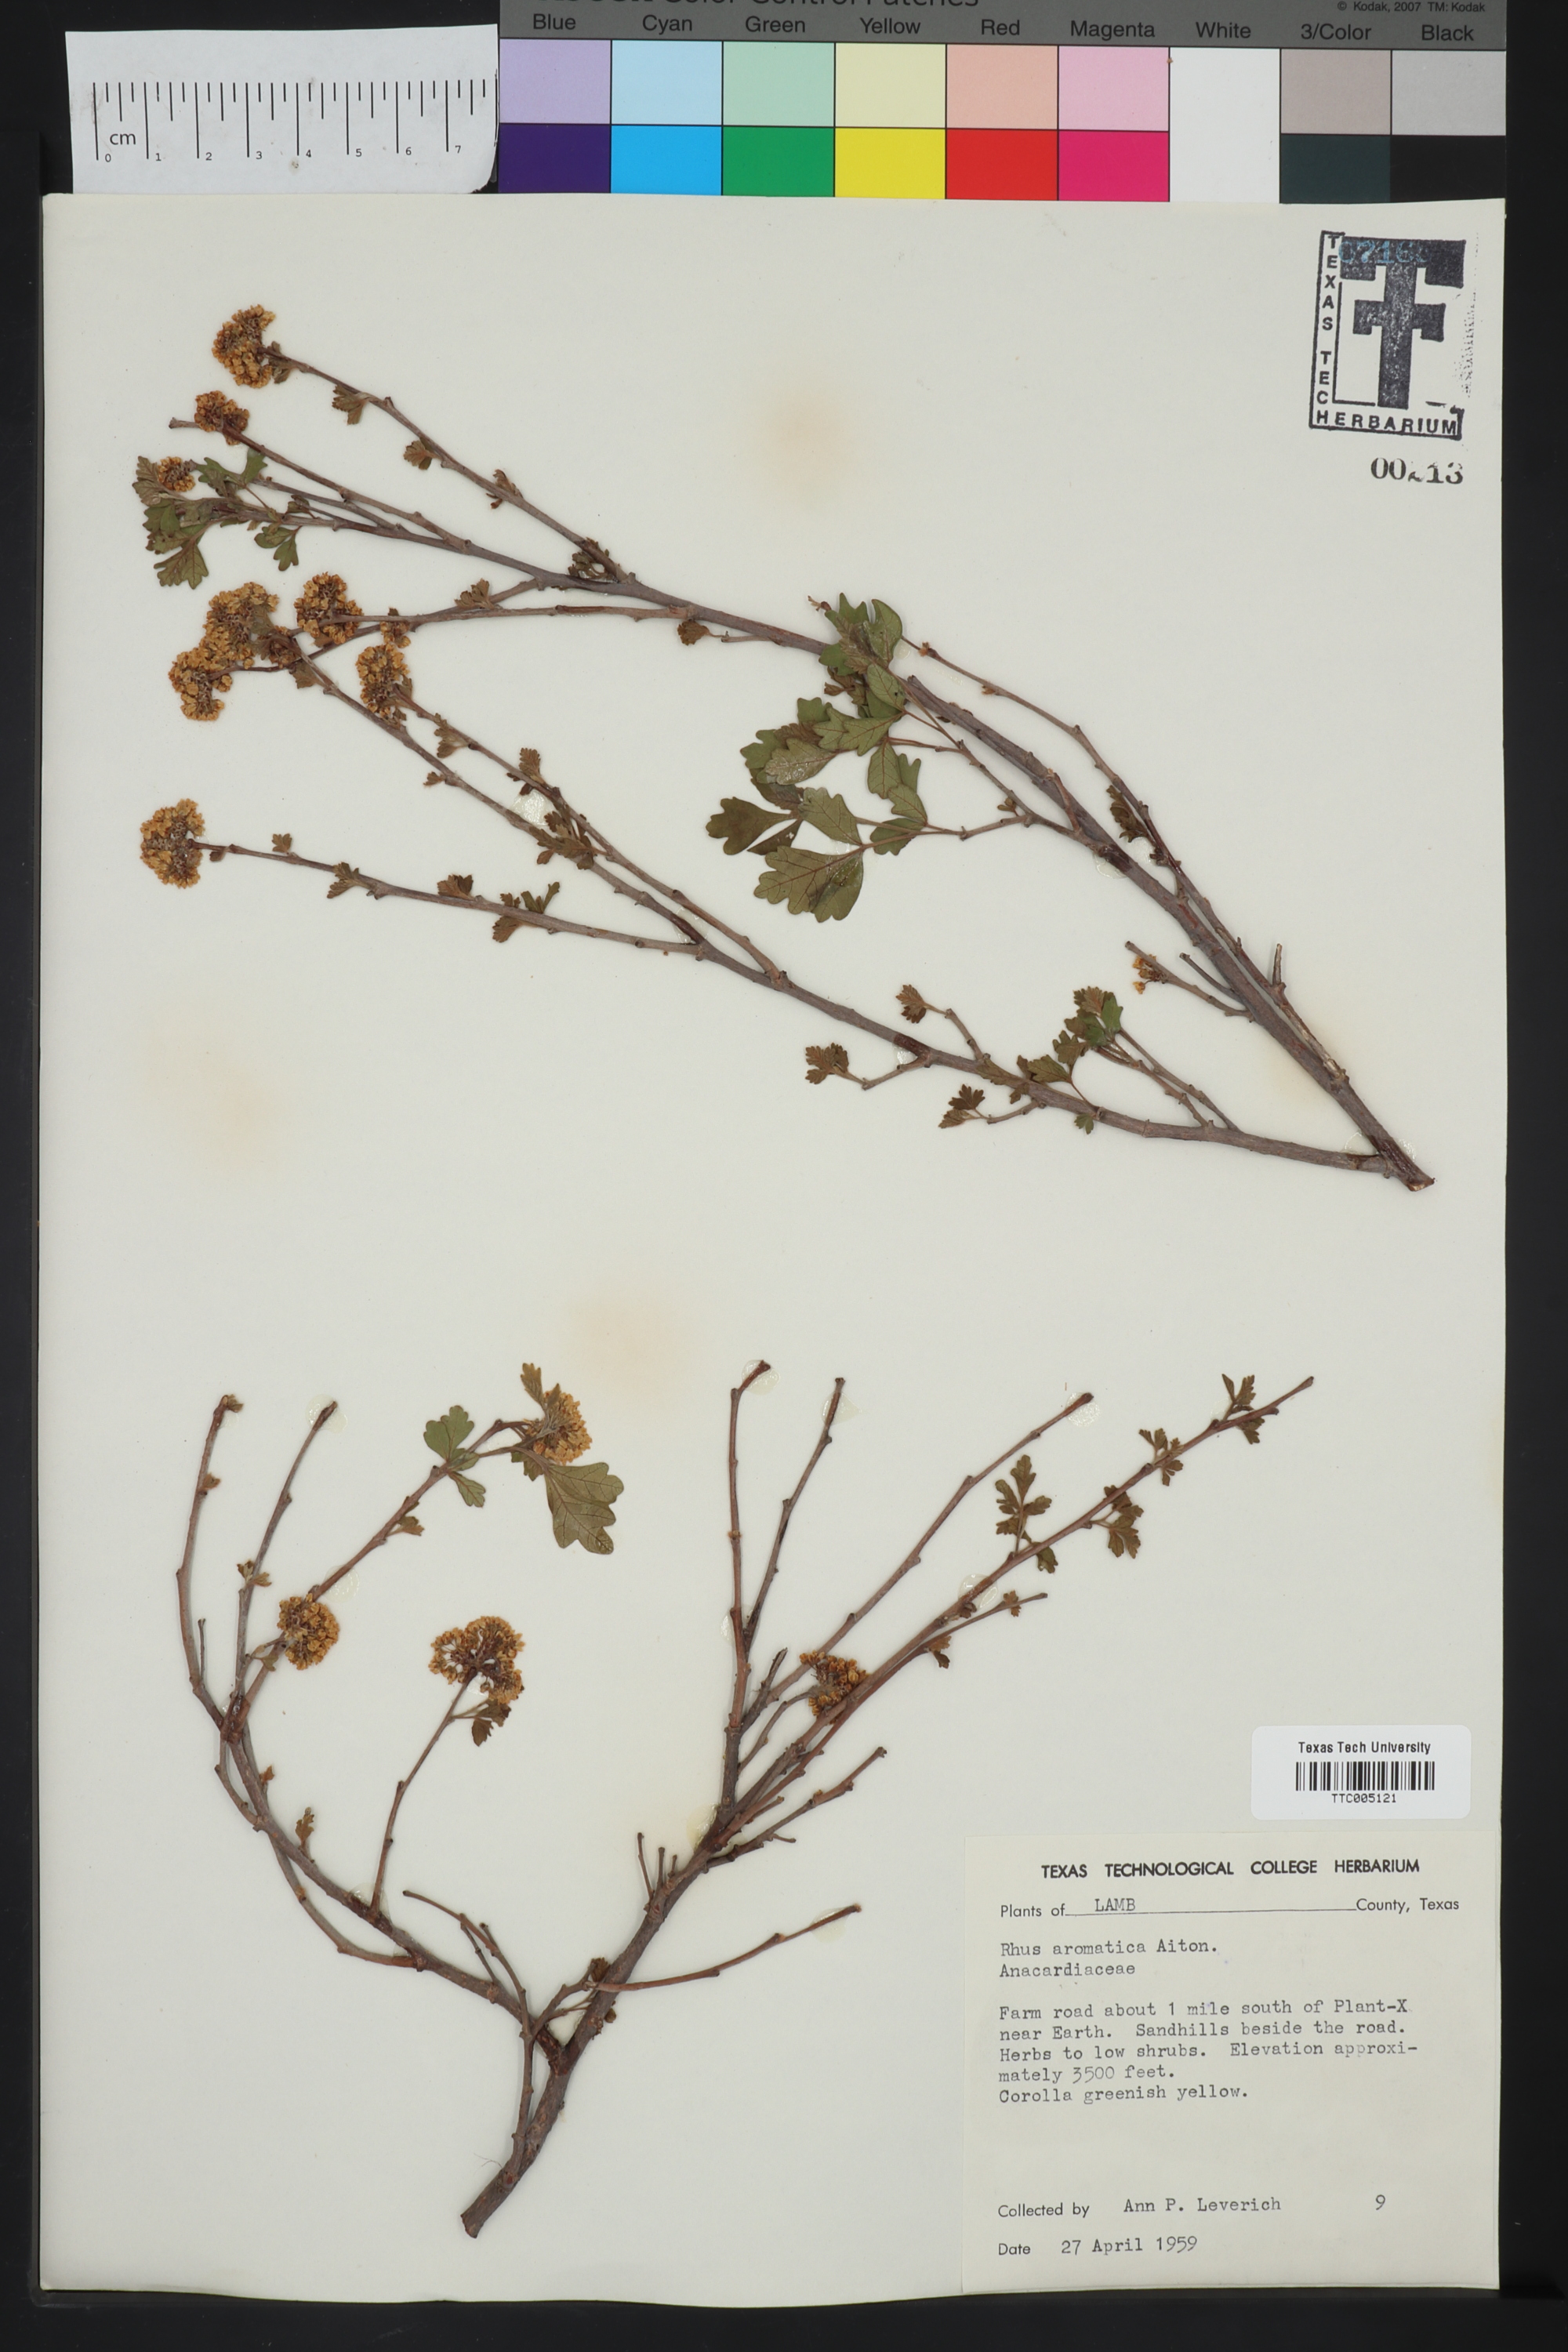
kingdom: Plantae
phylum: Tracheophyta
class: Magnoliopsida
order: Sapindales
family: Anacardiaceae
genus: Rhus
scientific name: Rhus aromatica
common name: Aromatic sumac
